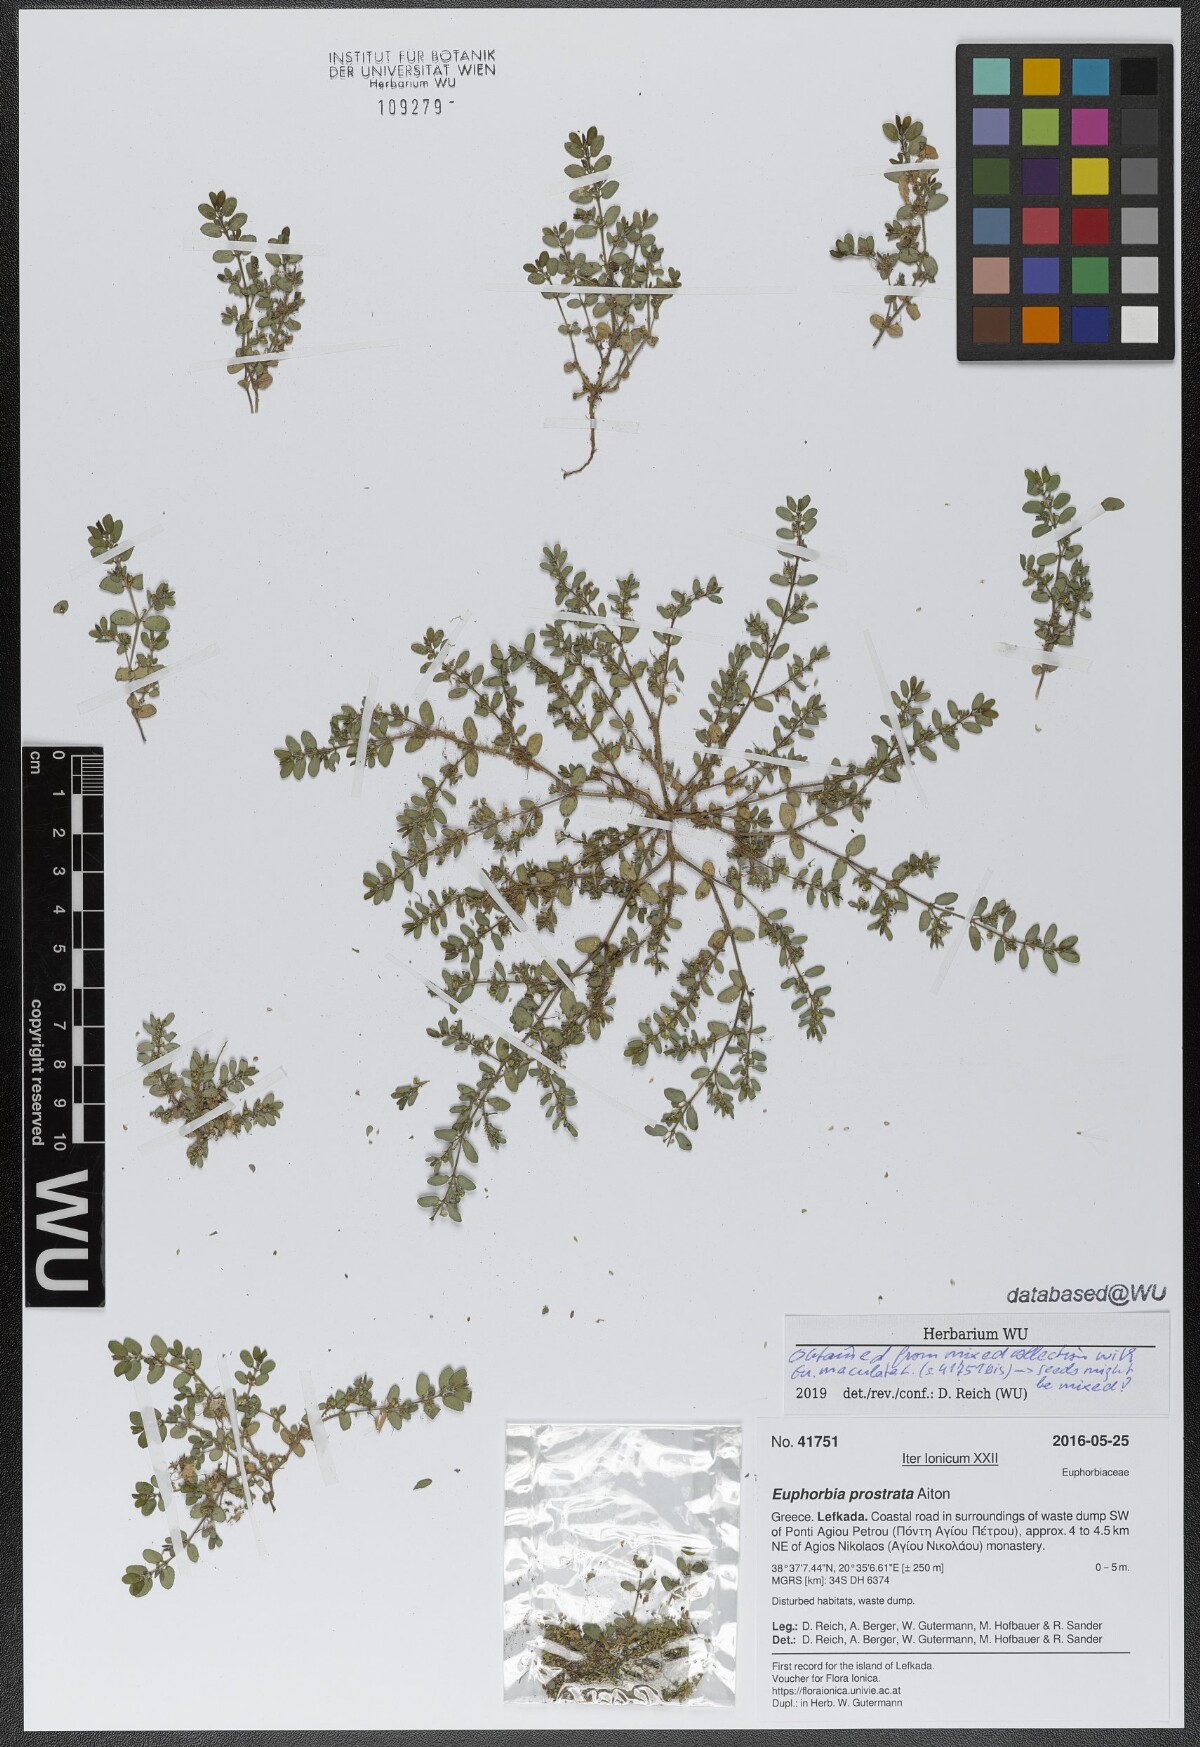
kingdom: Plantae
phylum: Tracheophyta
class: Magnoliopsida
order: Malpighiales
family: Euphorbiaceae
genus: Euphorbia
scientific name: Euphorbia prostrata
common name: Prostrate sandmat
